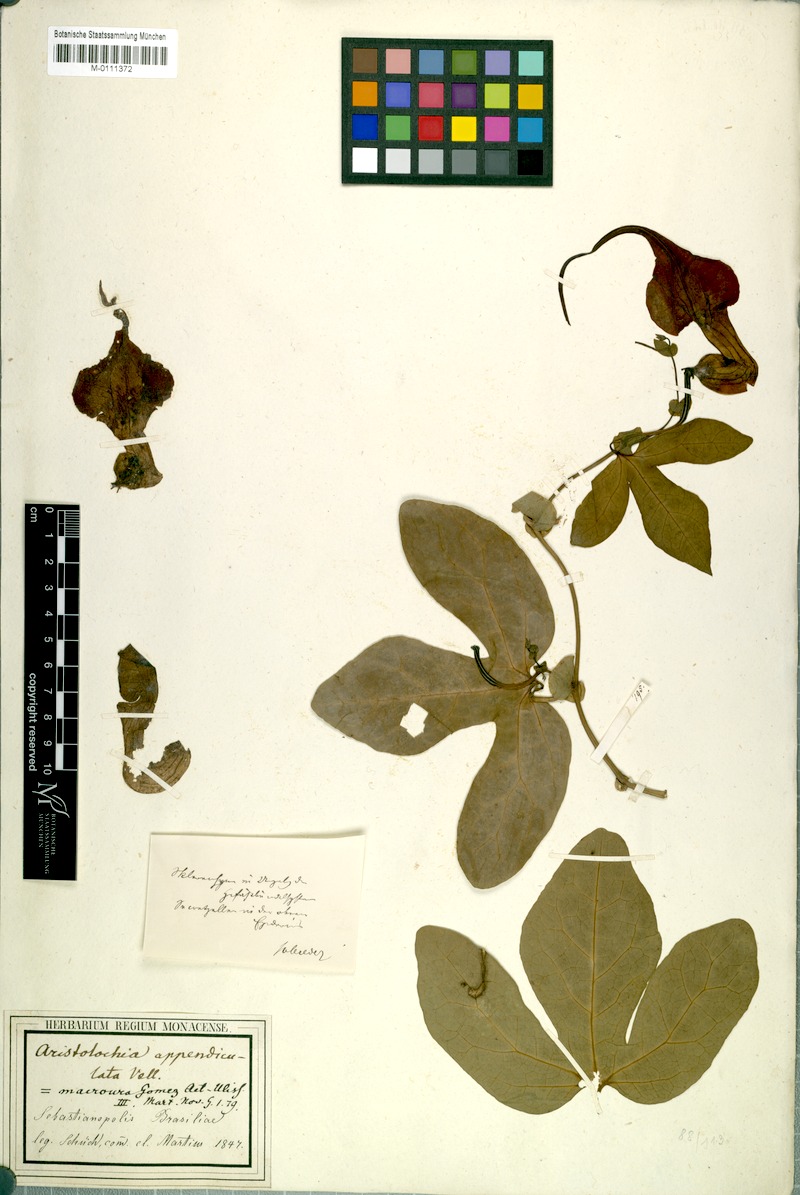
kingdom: Plantae
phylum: Tracheophyta
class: Magnoliopsida
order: Piperales
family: Aristolochiaceae
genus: Aristolochia
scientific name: Aristolochia macroura
